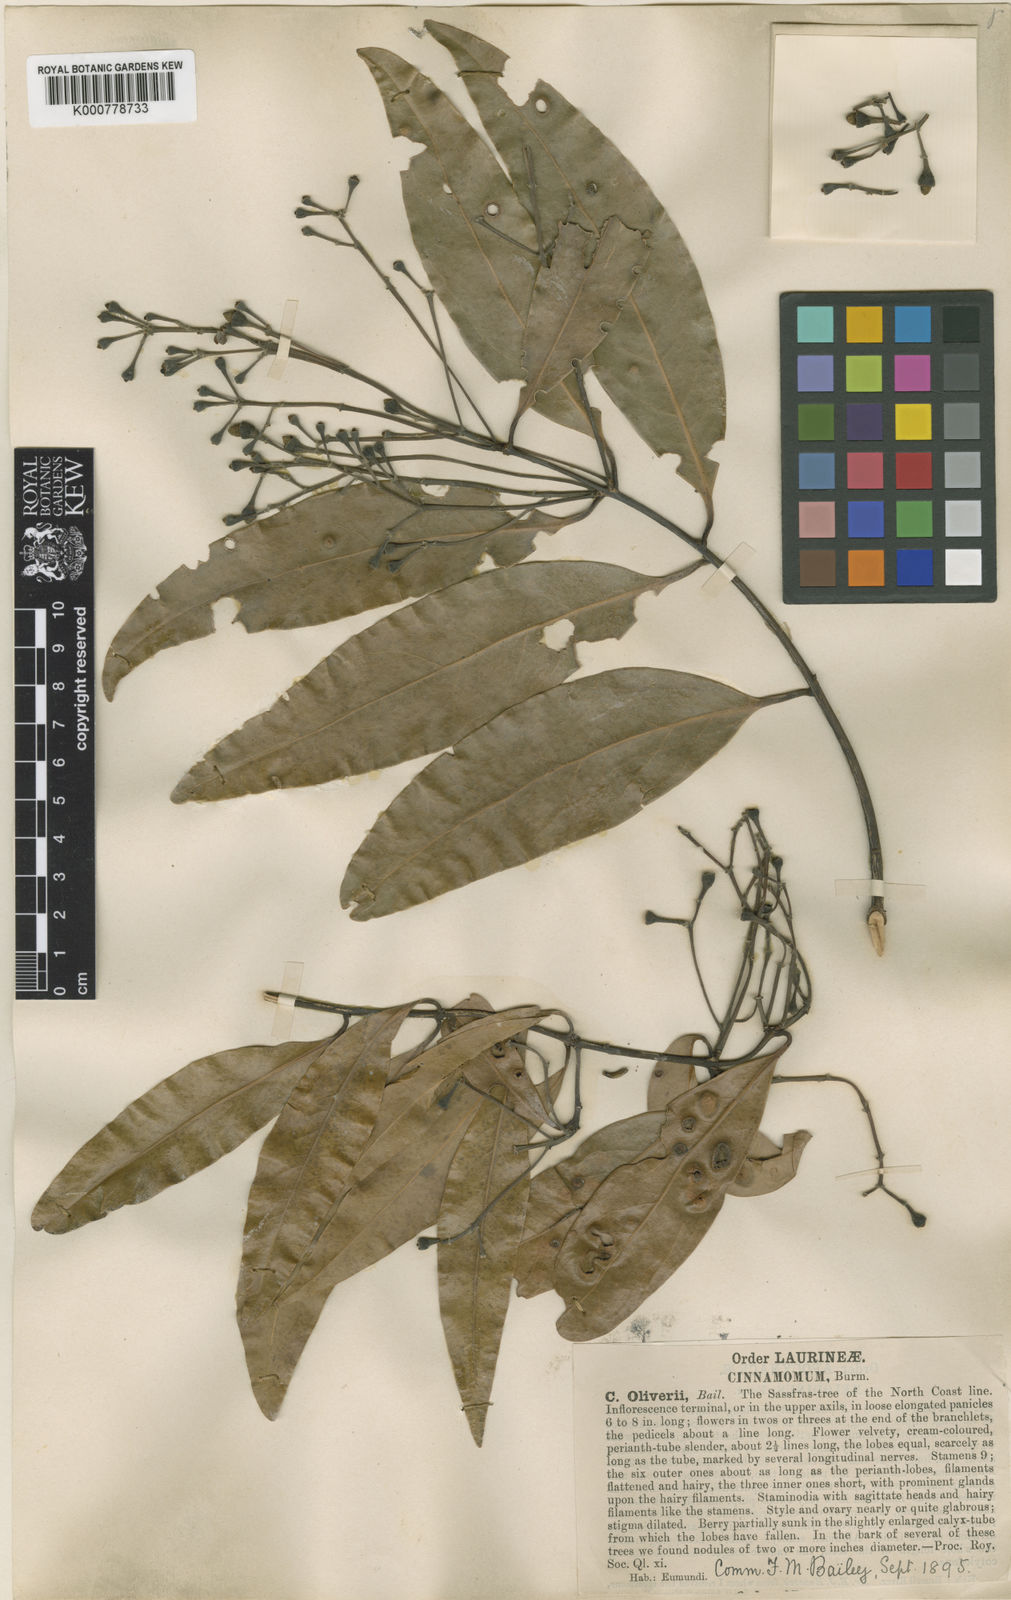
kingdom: Plantae
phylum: Tracheophyta
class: Magnoliopsida
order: Laurales
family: Lauraceae
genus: Cinnamomum
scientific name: Cinnamomum oliveri
